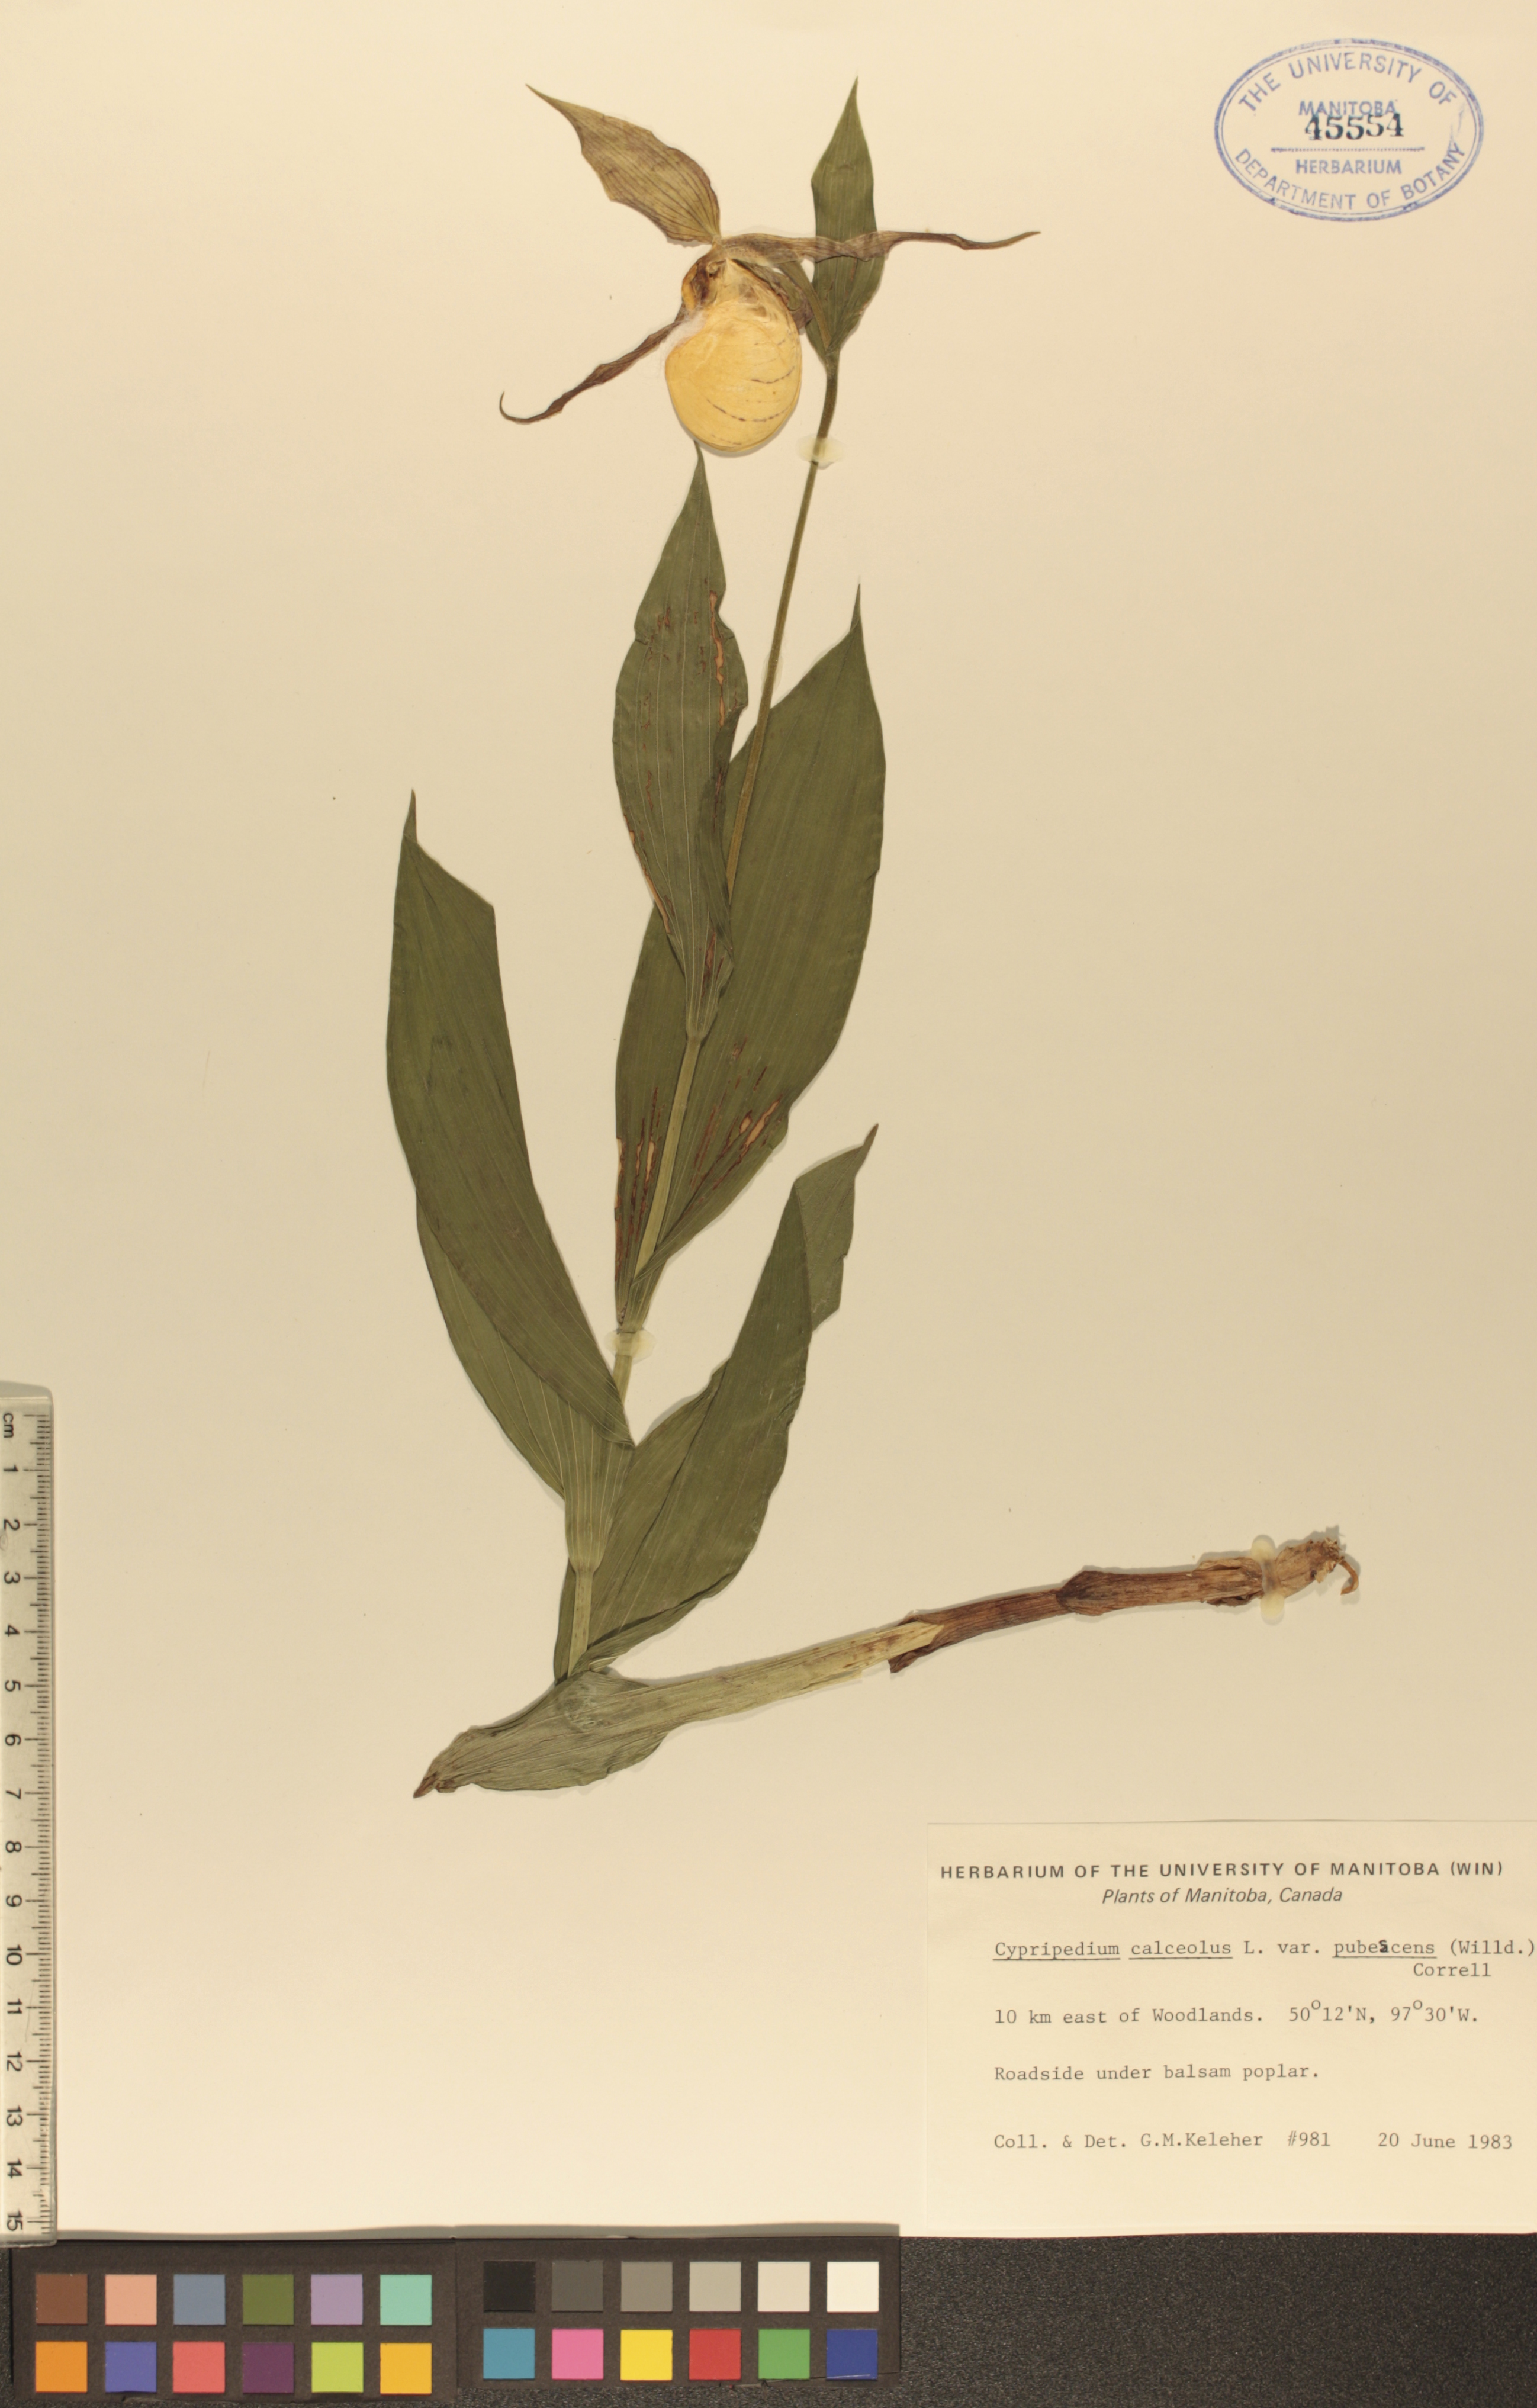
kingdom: Plantae
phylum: Tracheophyta
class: Liliopsida
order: Asparagales
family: Orchidaceae
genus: Cypripedium
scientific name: Cypripedium parviflorum
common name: American yellow lady's-slipper
